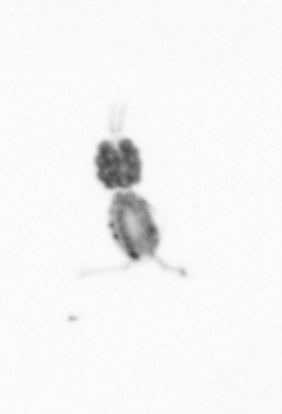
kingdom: Animalia
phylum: Arthropoda
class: Copepoda
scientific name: Copepoda
